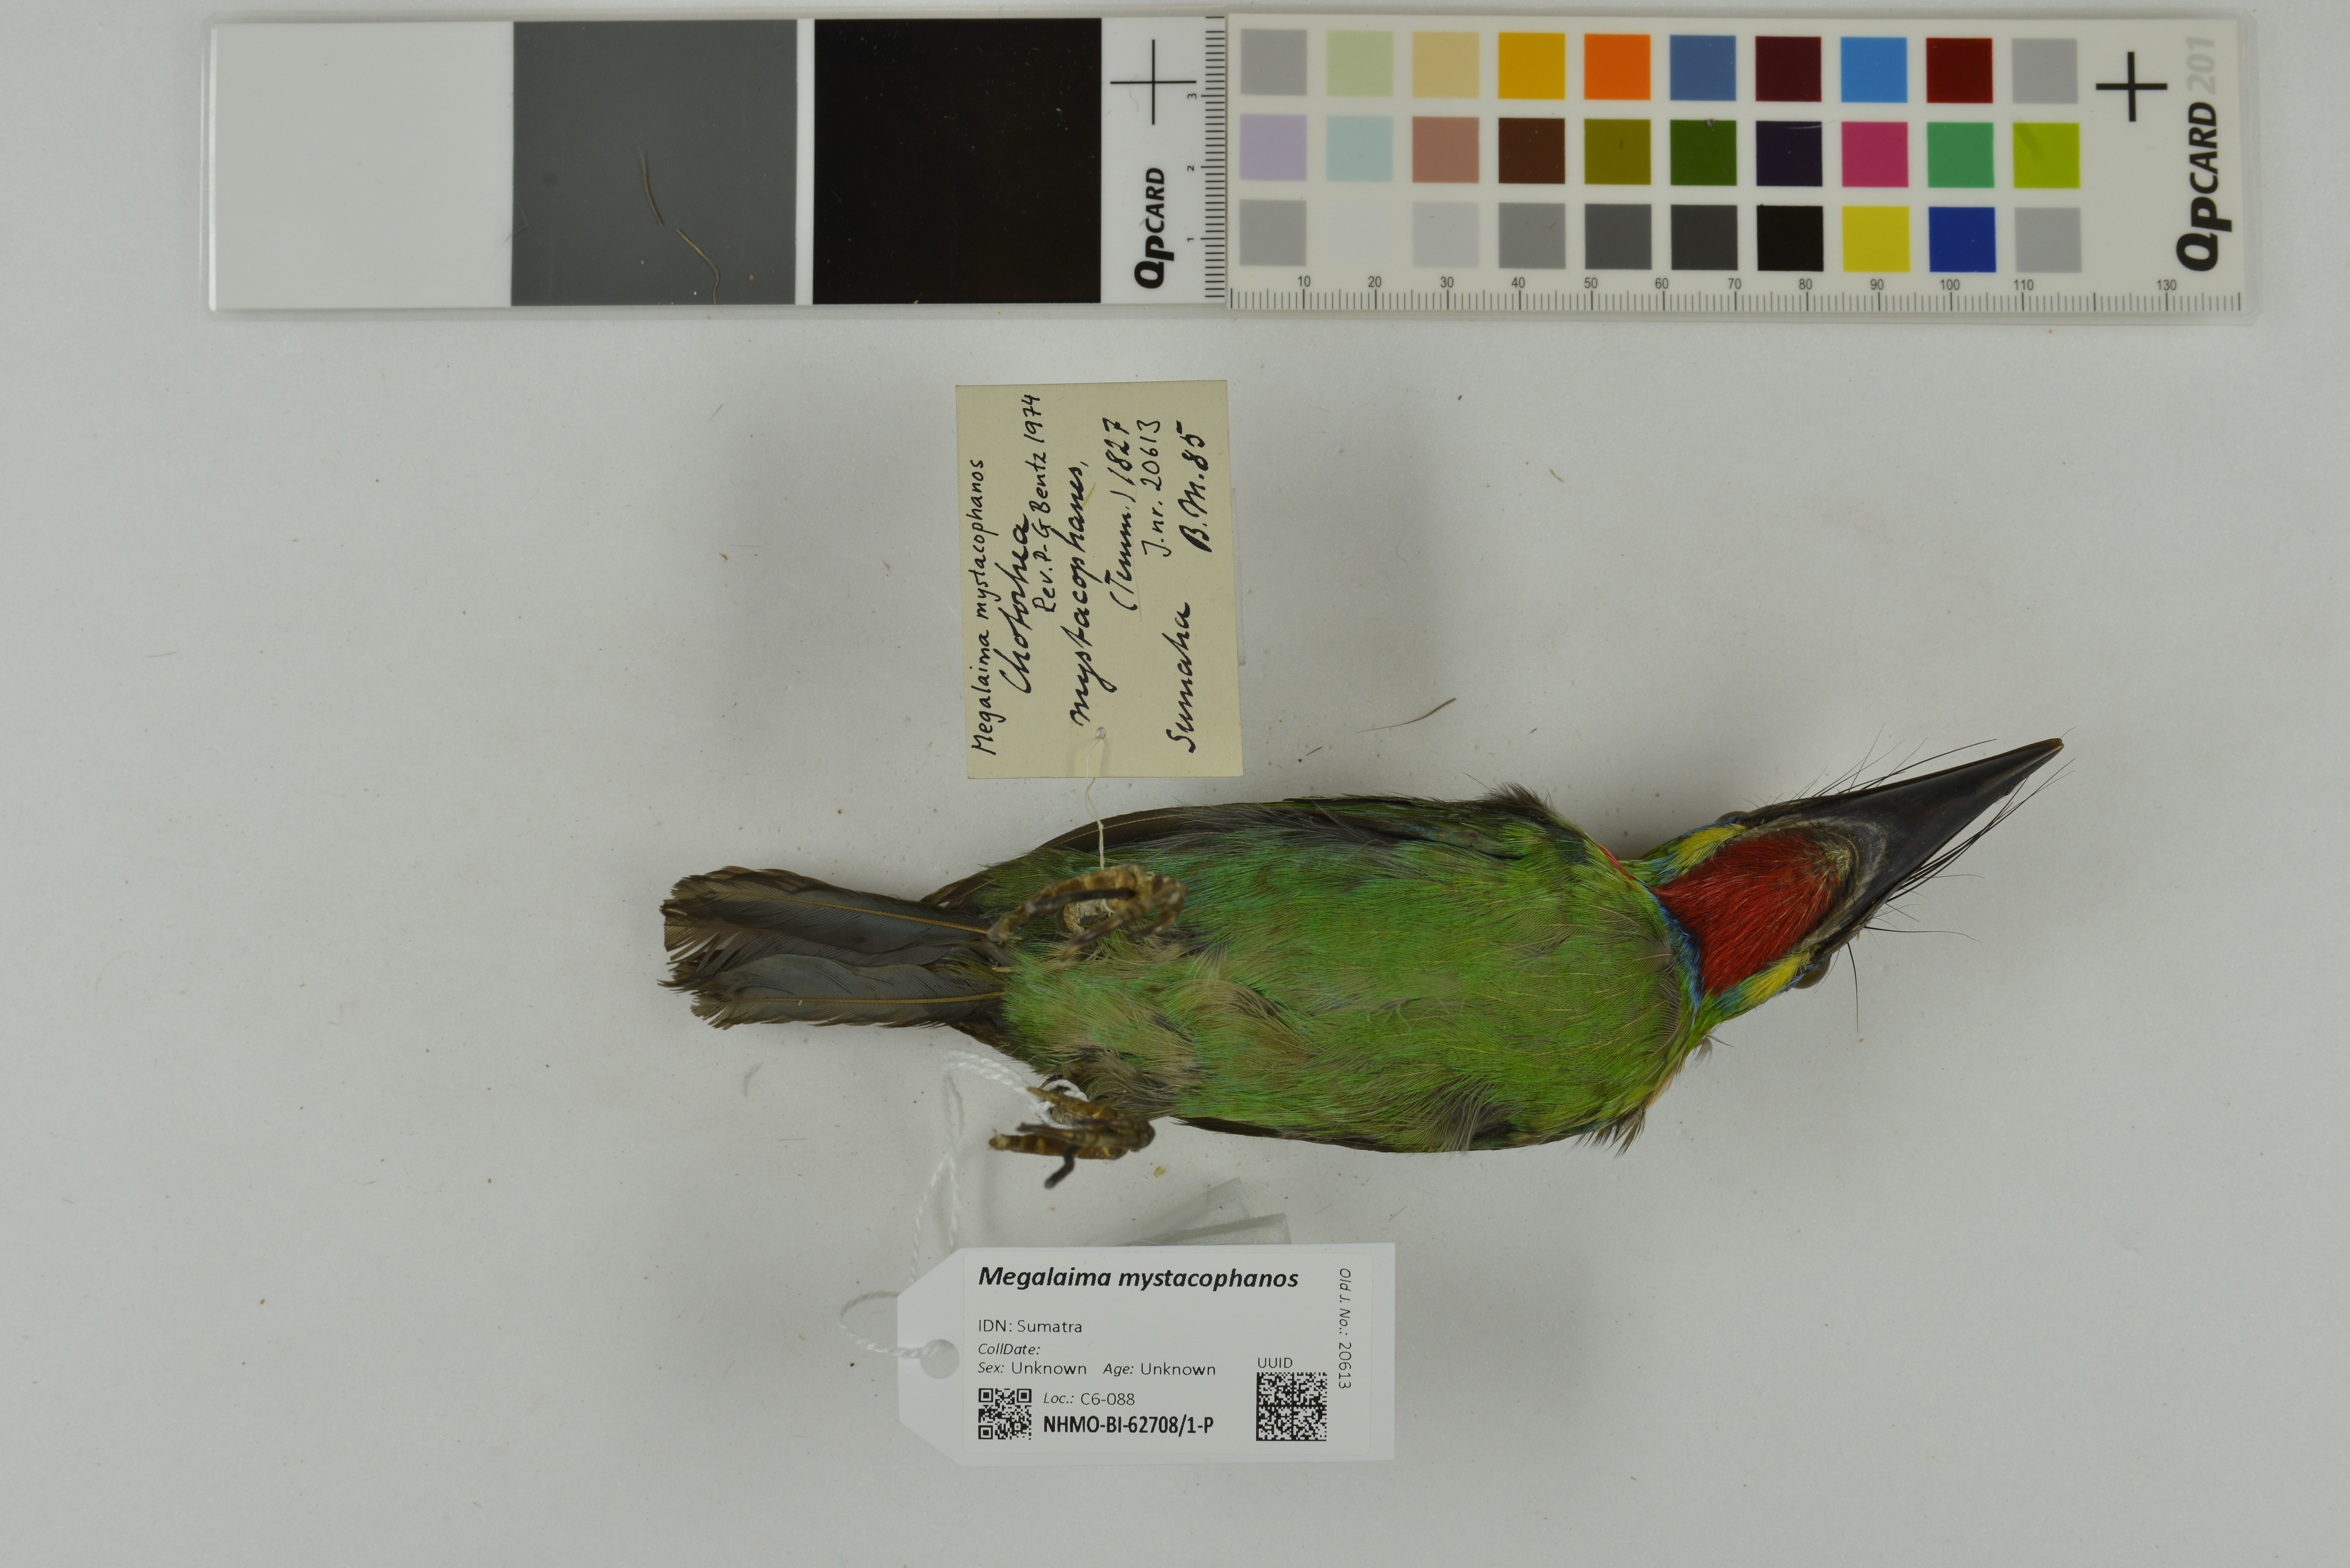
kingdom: Animalia
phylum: Chordata
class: Aves
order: Piciformes
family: Megalaimidae
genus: Psilopogon
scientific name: Psilopogon mystacophanos
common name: Red-throated barbet
